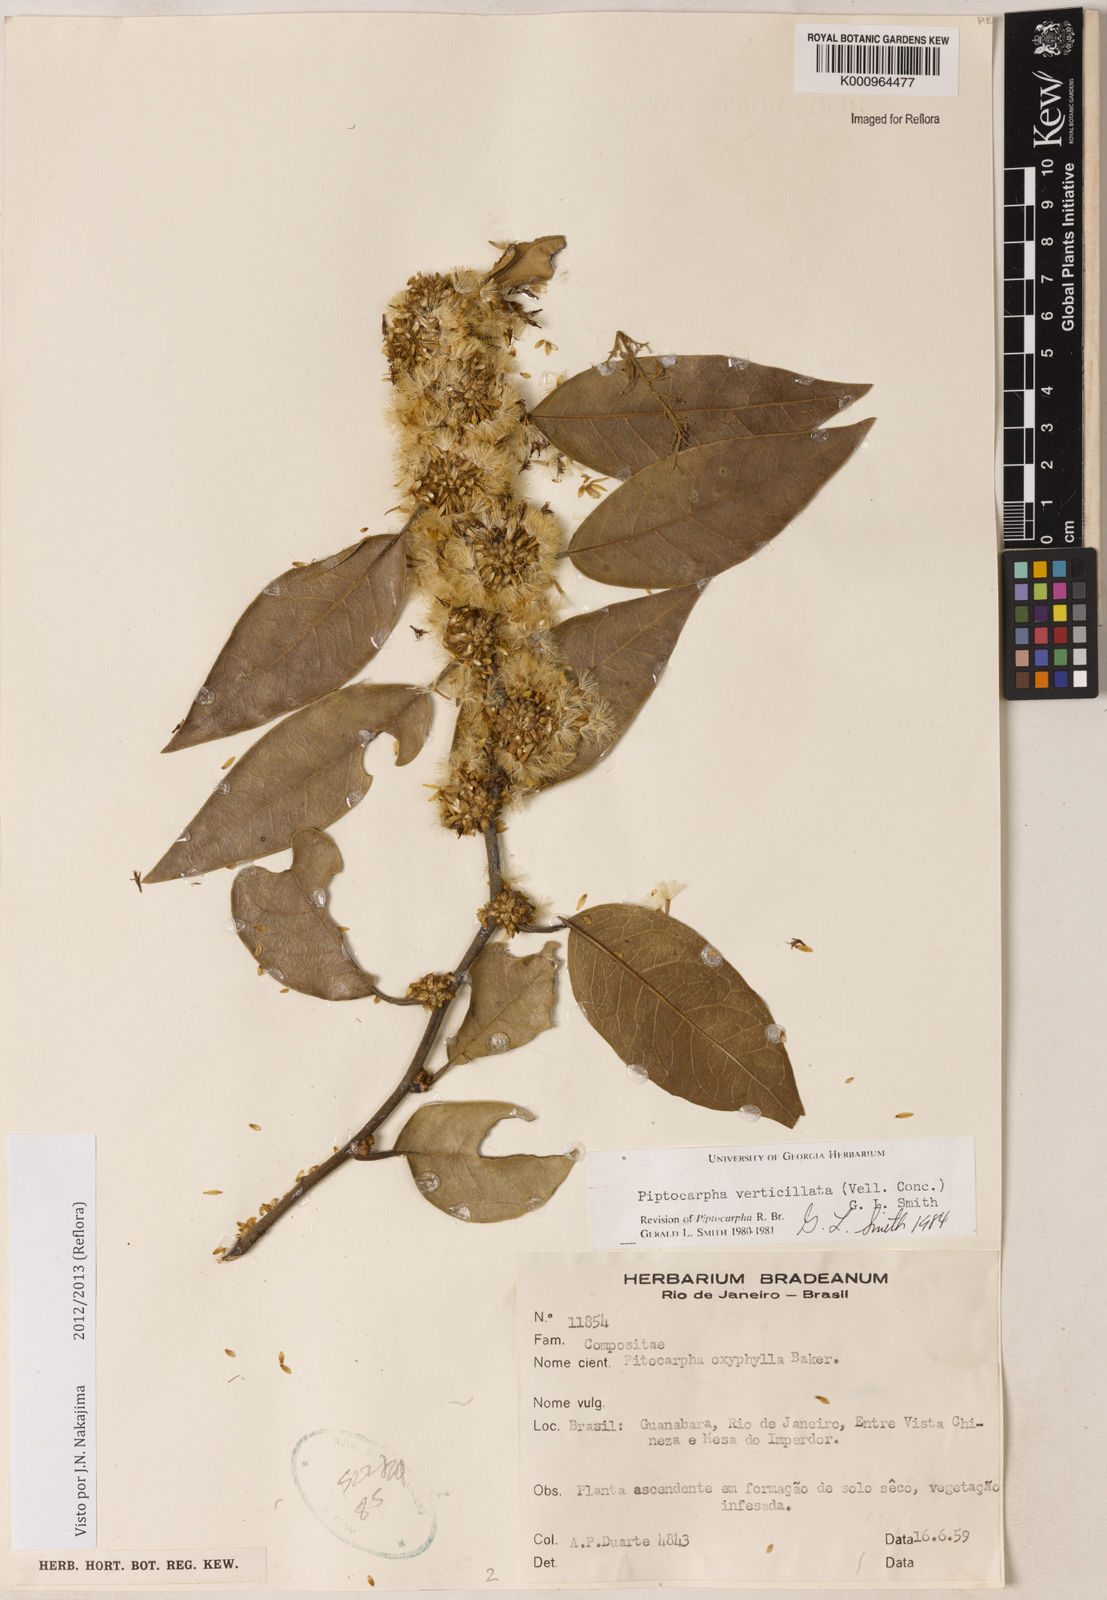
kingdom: Plantae
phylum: Tracheophyta
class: Magnoliopsida
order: Asterales
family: Asteraceae
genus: Piptocarpha
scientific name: Piptocarpha verticillata
